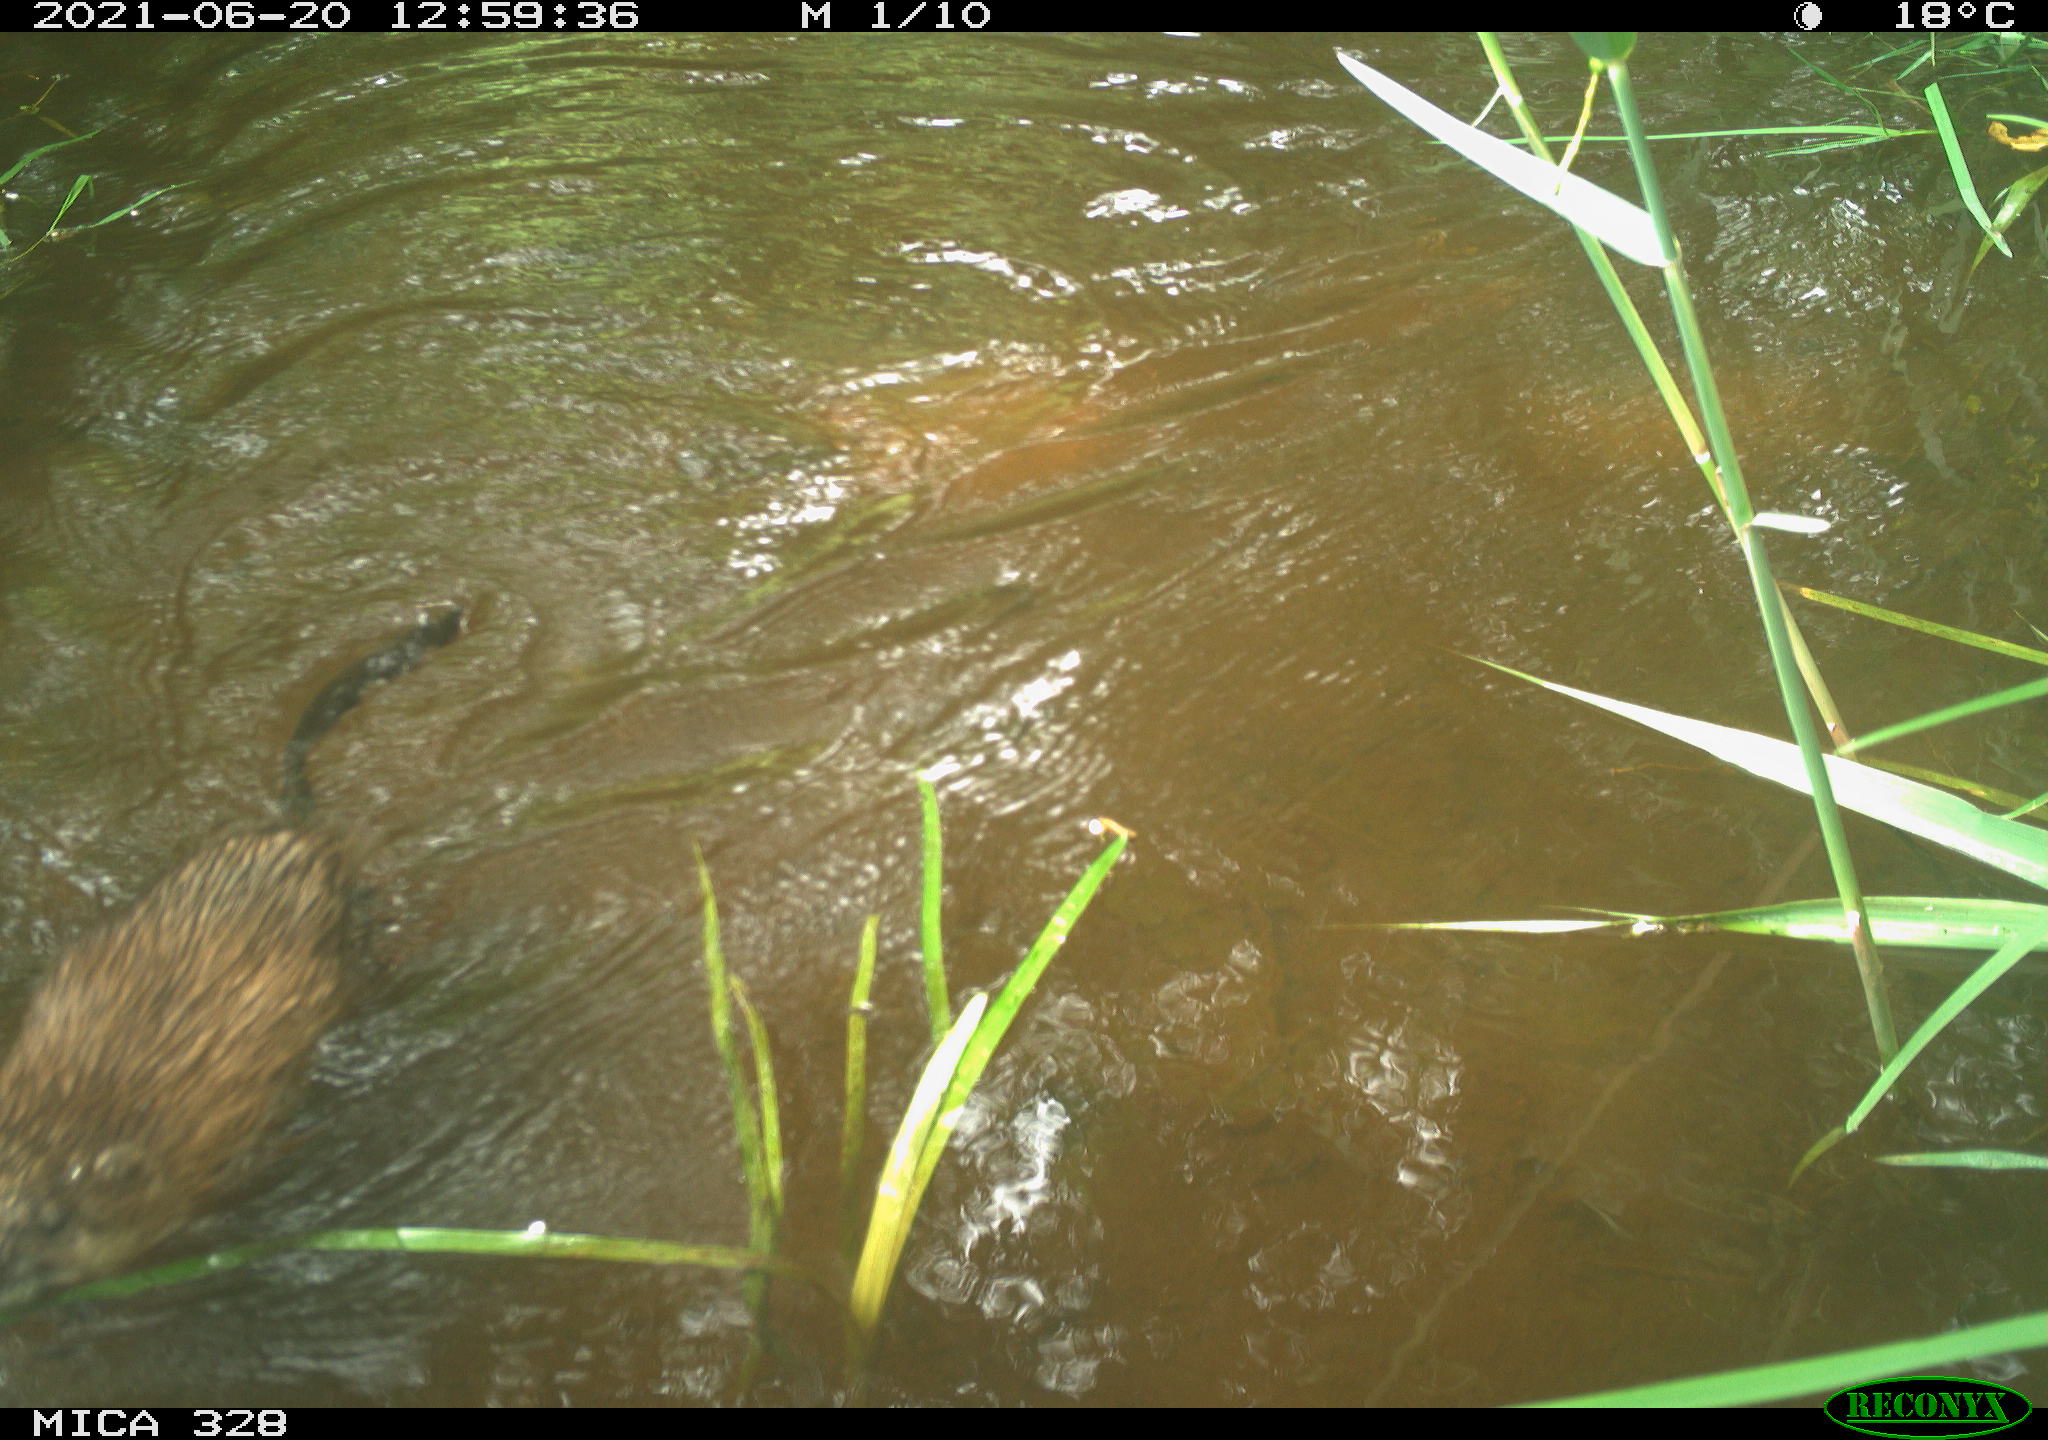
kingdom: Animalia
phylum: Chordata
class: Mammalia
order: Rodentia
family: Cricetidae
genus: Ondatra
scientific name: Ondatra zibethicus
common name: Muskrat
